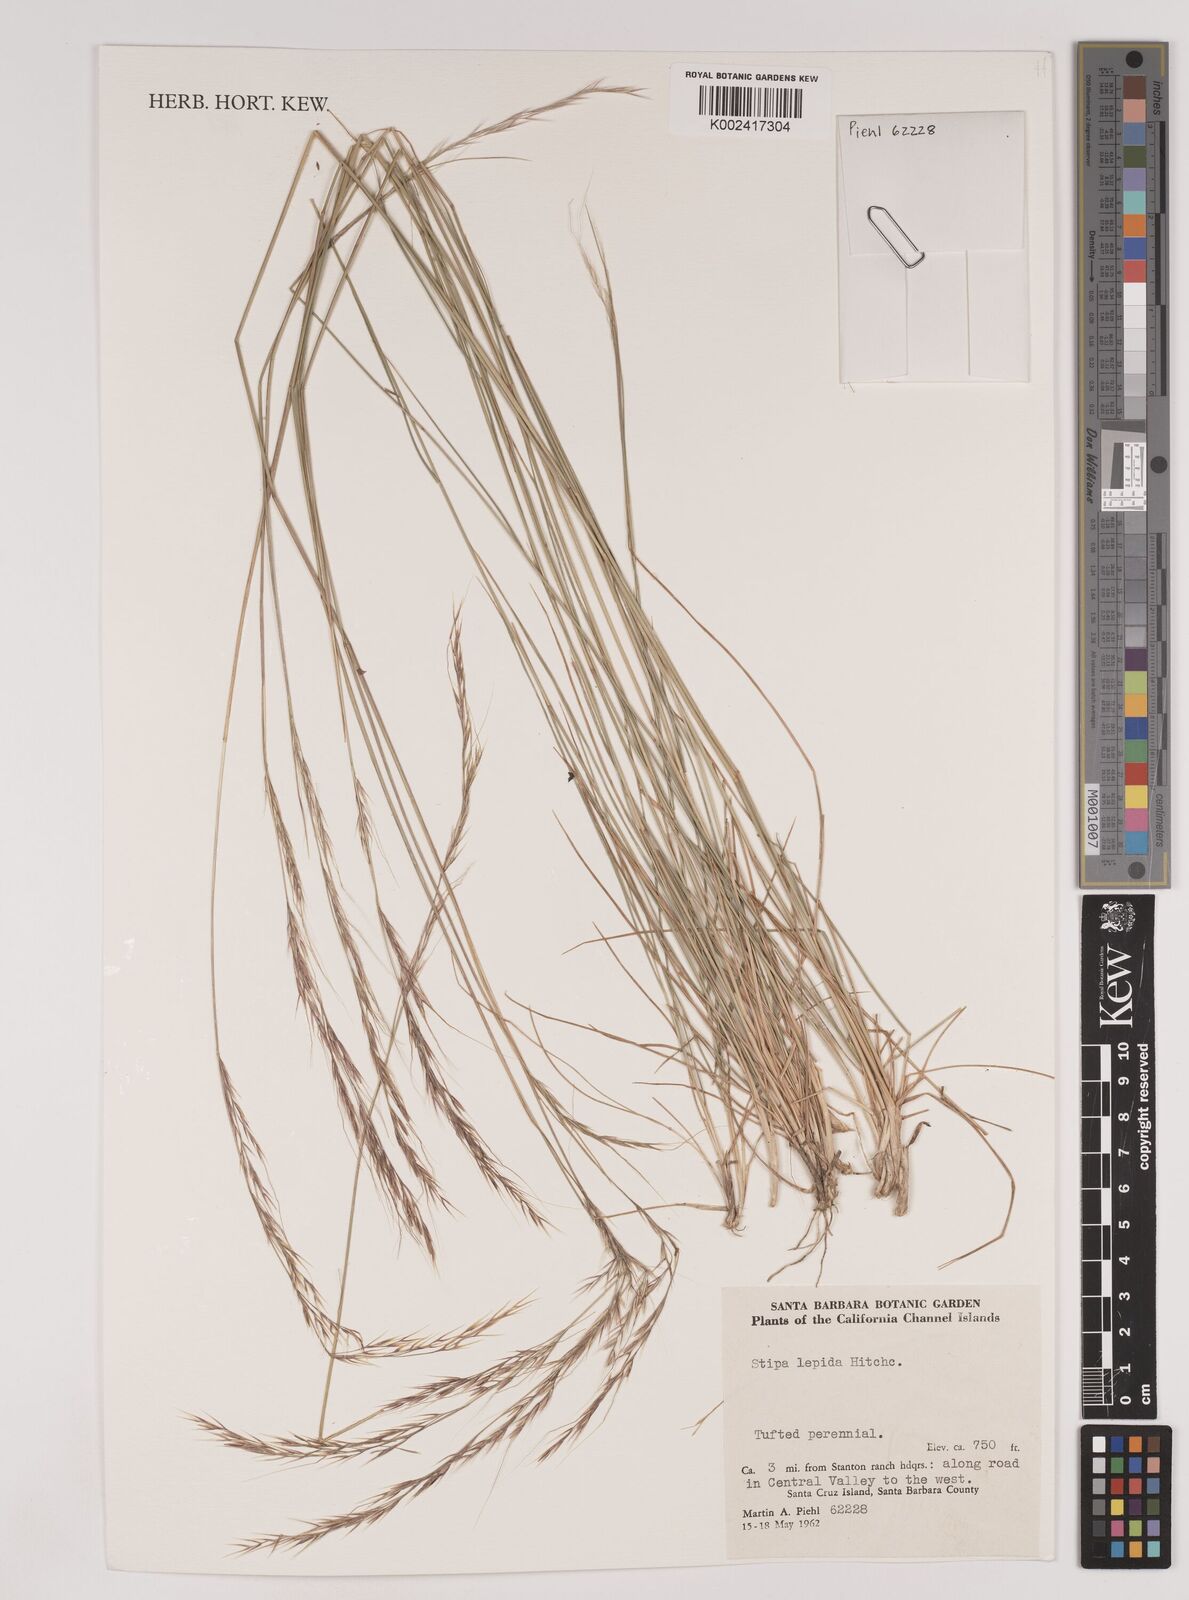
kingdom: Plantae
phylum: Tracheophyta
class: Liliopsida
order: Poales
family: Poaceae
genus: Nassella
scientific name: Nassella lepida
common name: Foothill needlegrass
